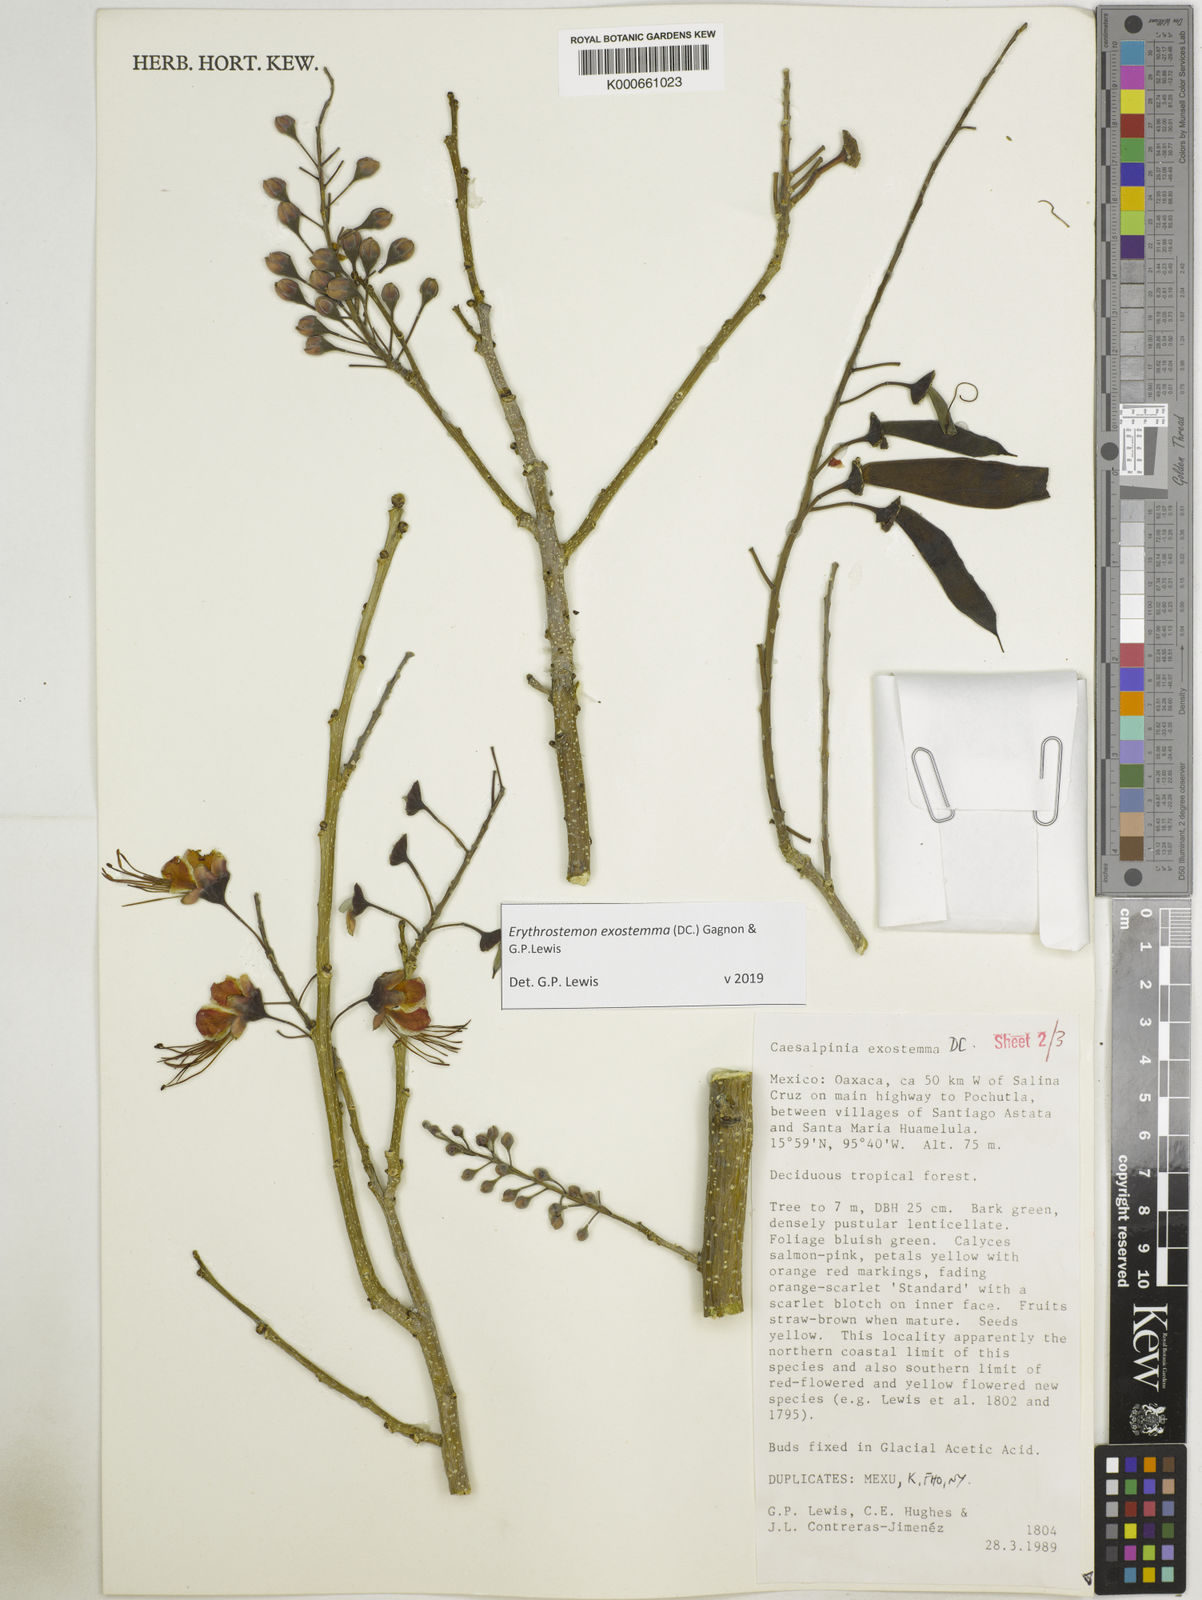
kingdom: Plantae
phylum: Tracheophyta
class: Magnoliopsida
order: Fabales
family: Fabaceae
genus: Erythrostemon
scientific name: Erythrostemon exostemma
